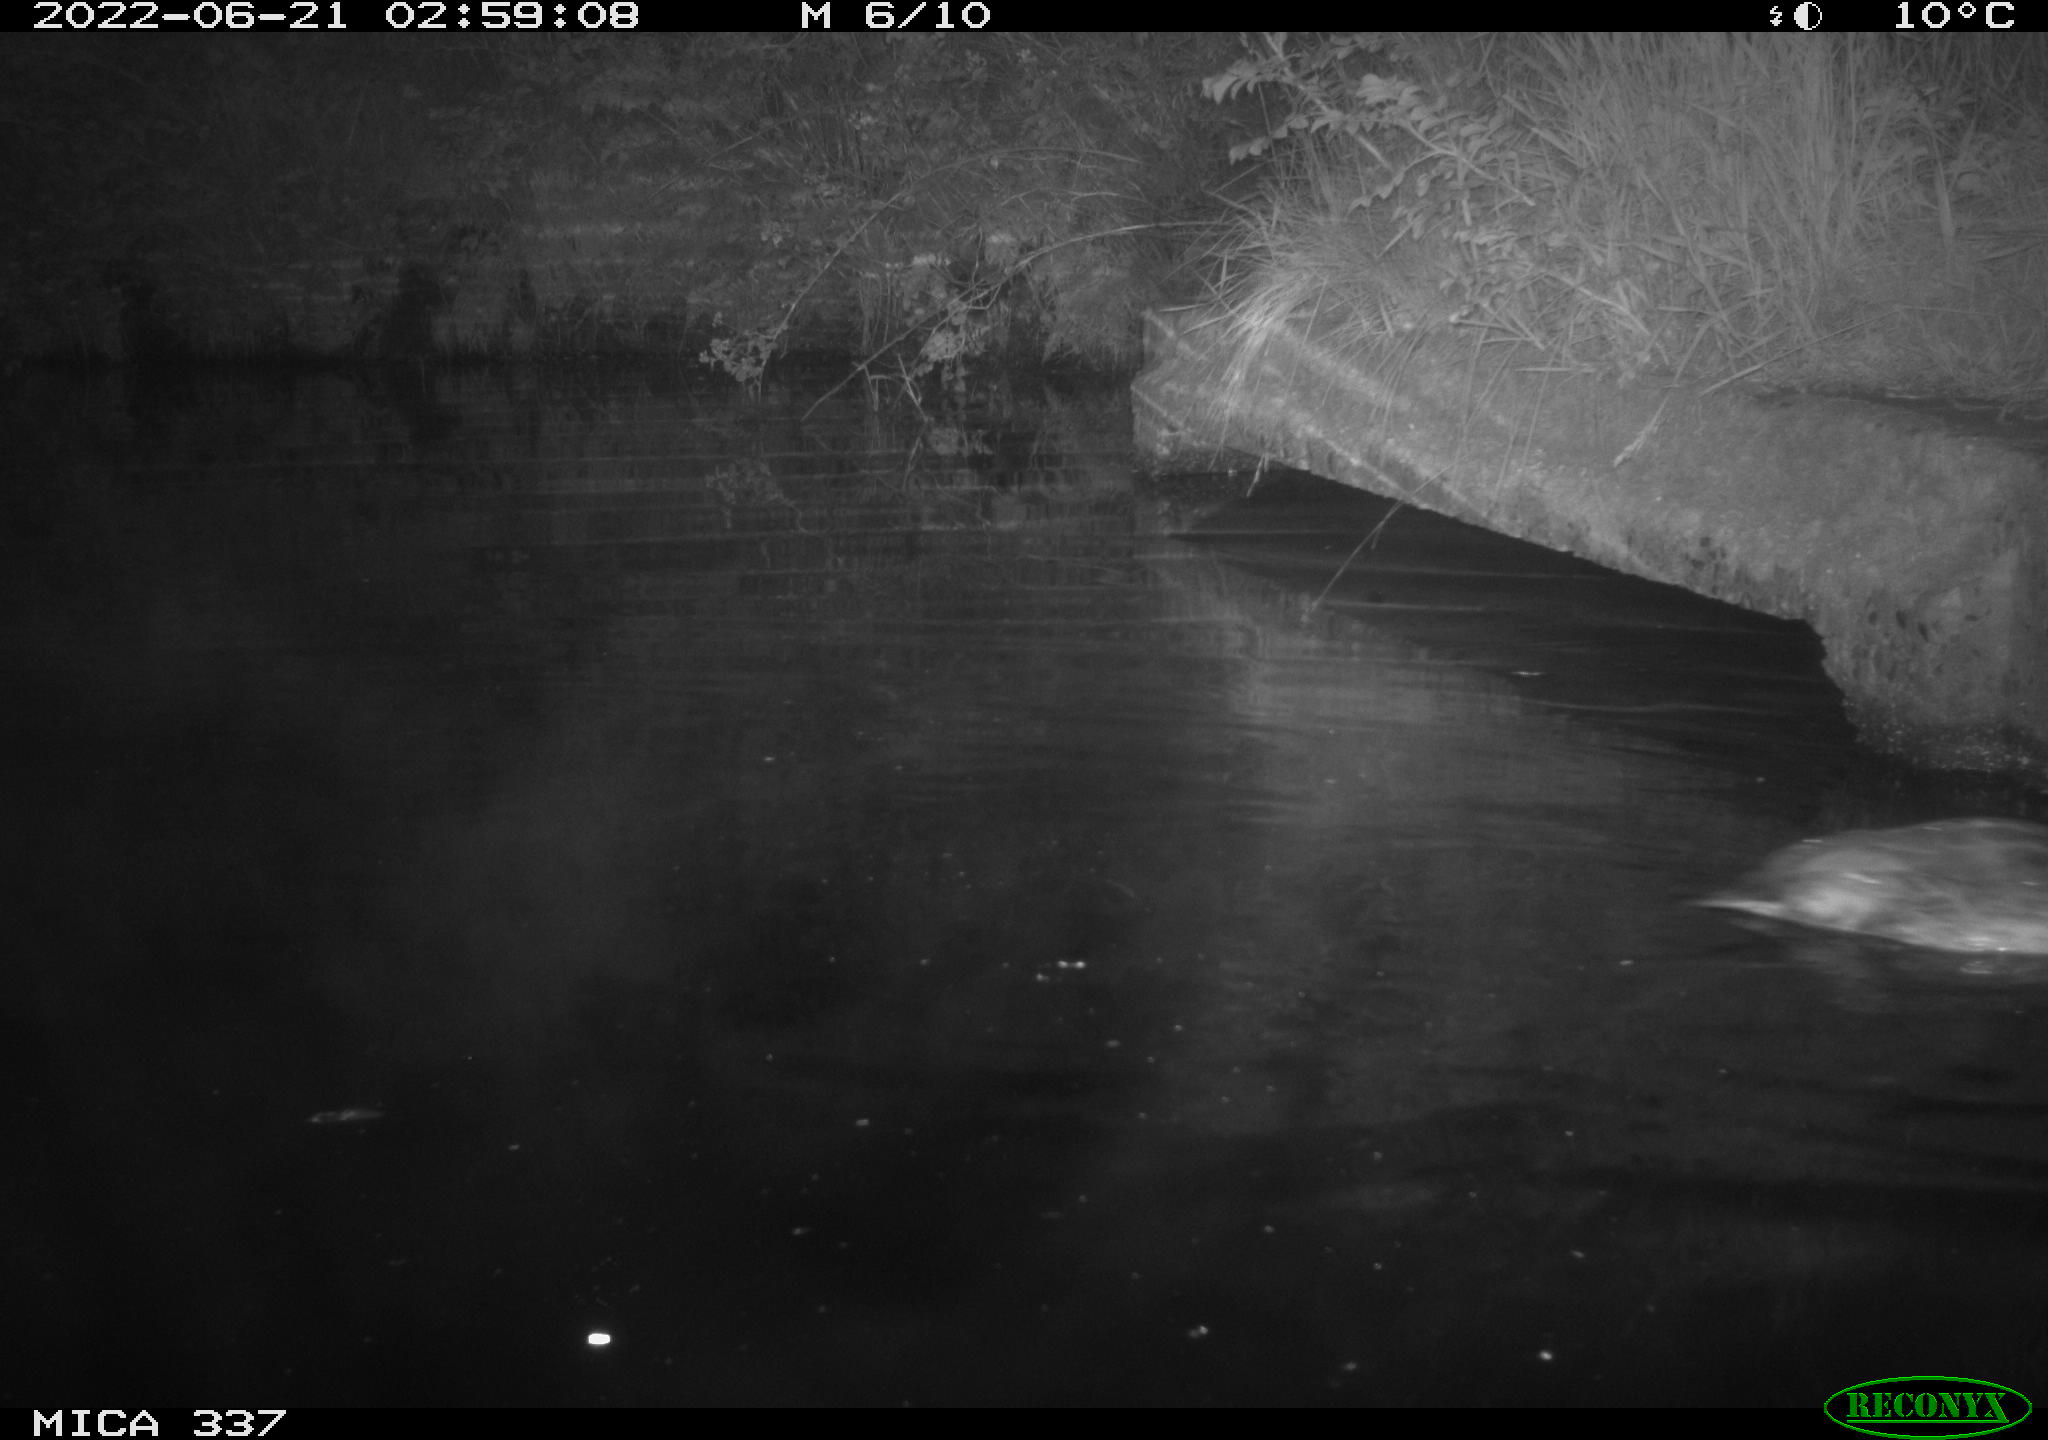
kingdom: Animalia
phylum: Chordata
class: Aves
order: Anseriformes
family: Anatidae
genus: Anas
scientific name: Anas platyrhynchos
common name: Mallard
